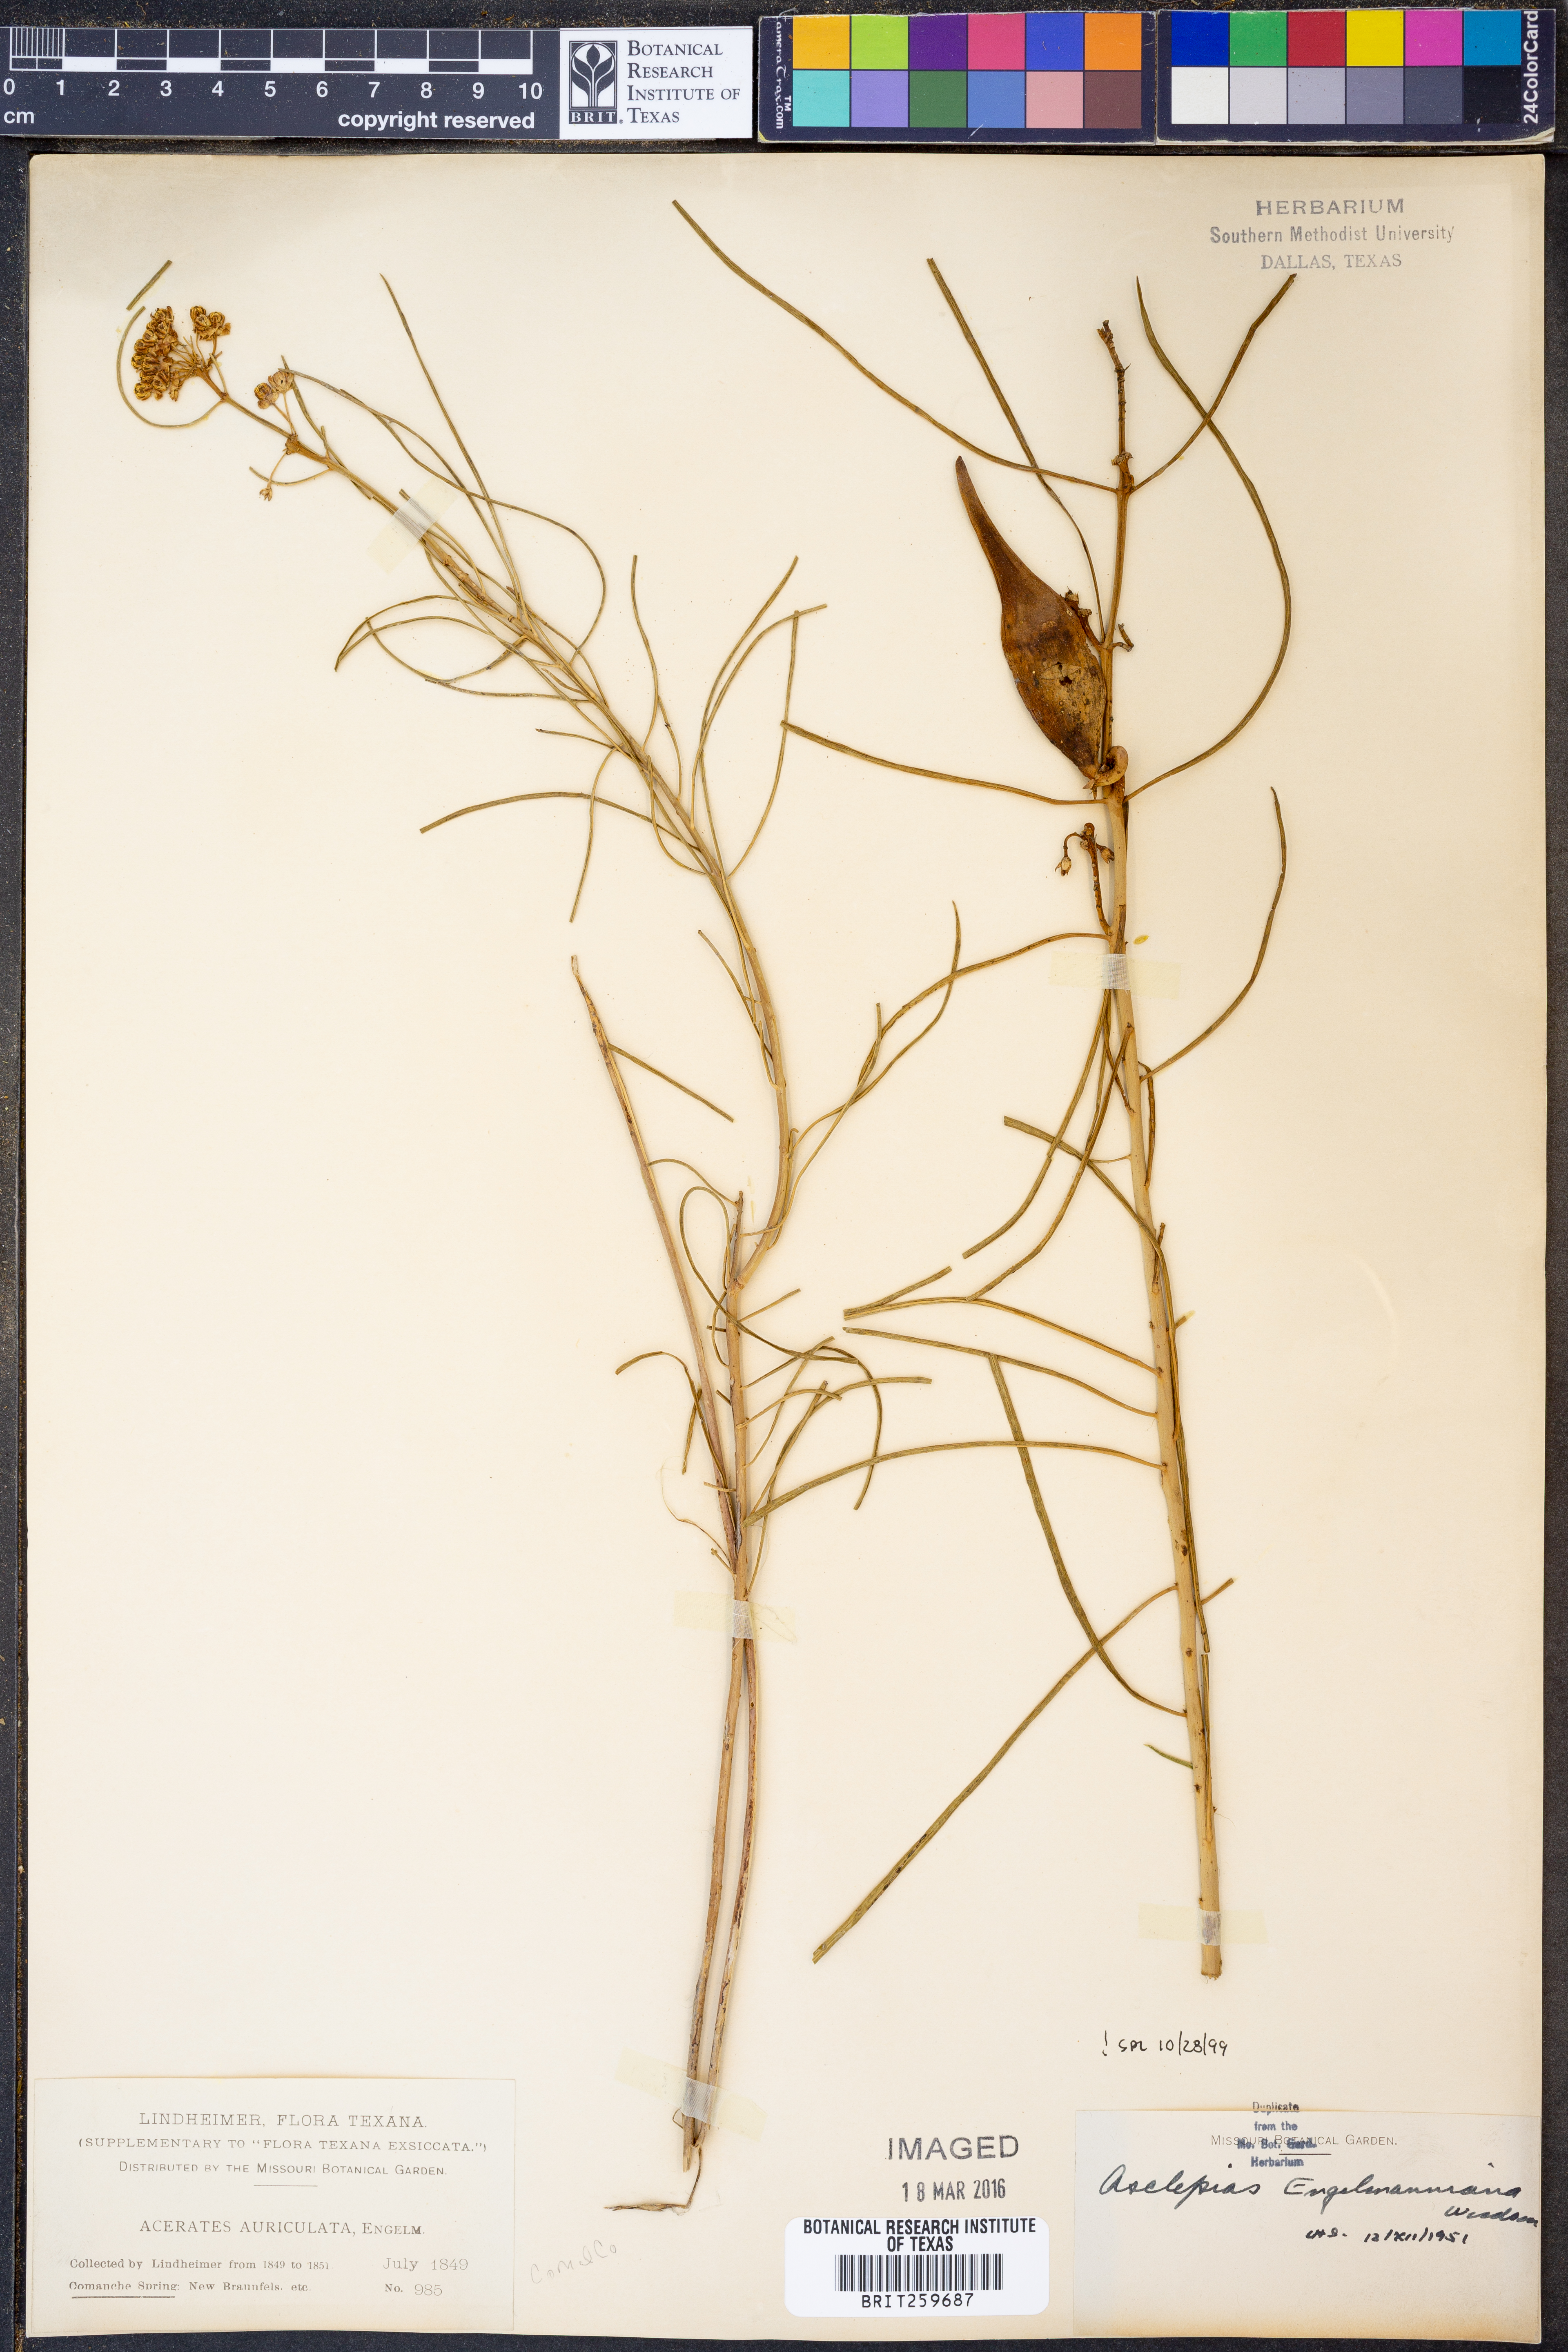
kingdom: Plantae
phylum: Tracheophyta
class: Magnoliopsida
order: Gentianales
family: Apocynaceae
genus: Asclepias
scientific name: Asclepias engelmanniana
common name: Engelmann's milkweed
